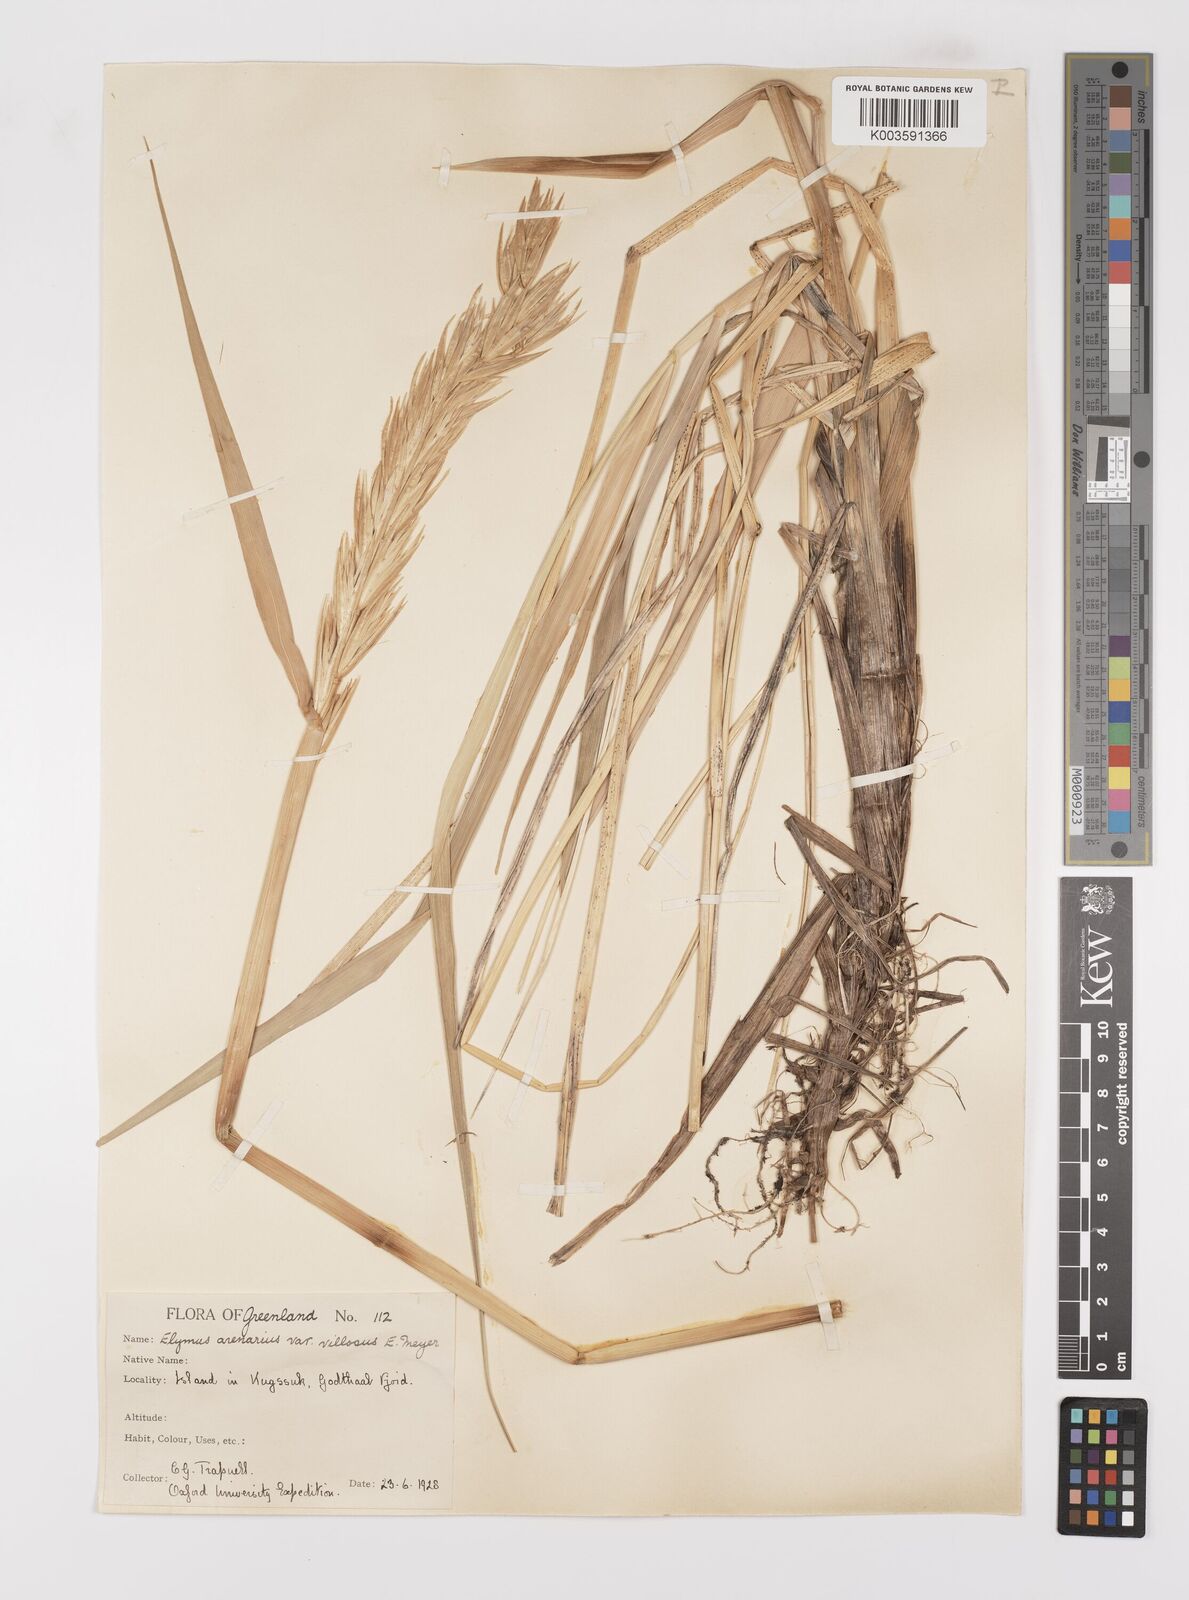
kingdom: Plantae
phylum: Tracheophyta
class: Liliopsida
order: Poales
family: Poaceae
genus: Leymus
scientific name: Leymus mollis
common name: American dune grass
